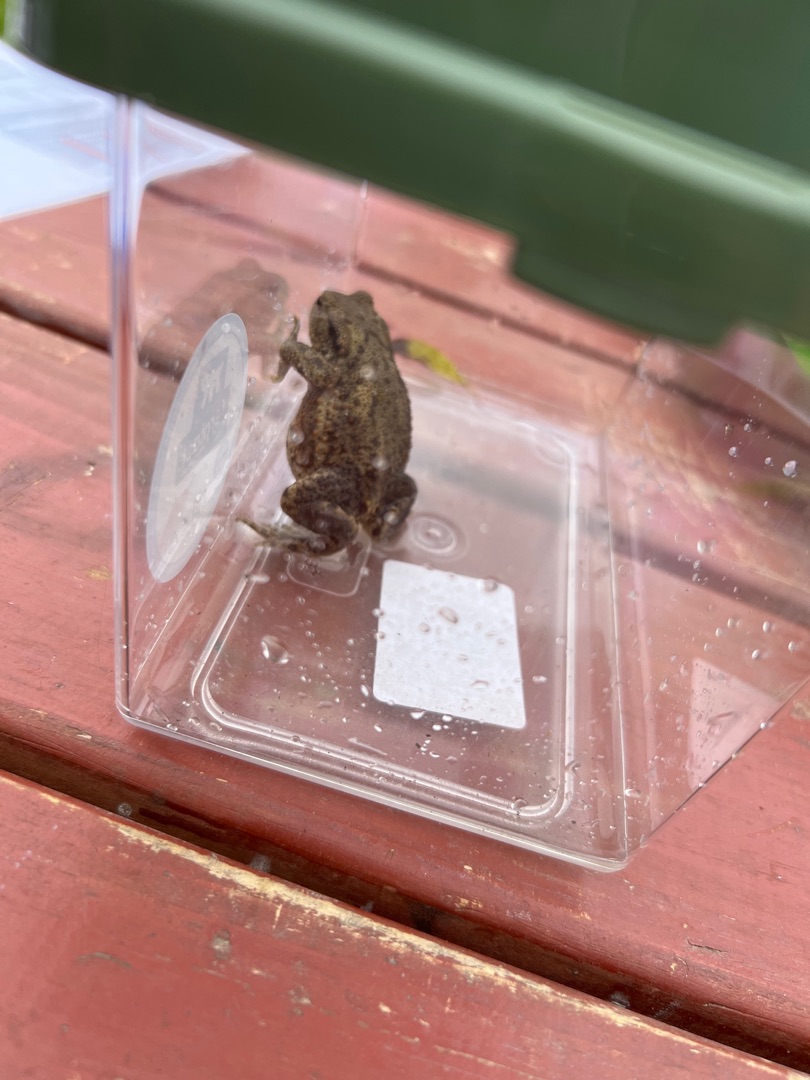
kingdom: Animalia
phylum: Chordata
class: Amphibia
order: Anura
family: Bufonidae
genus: Bufo
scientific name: Bufo bufo
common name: Skrubtudse
